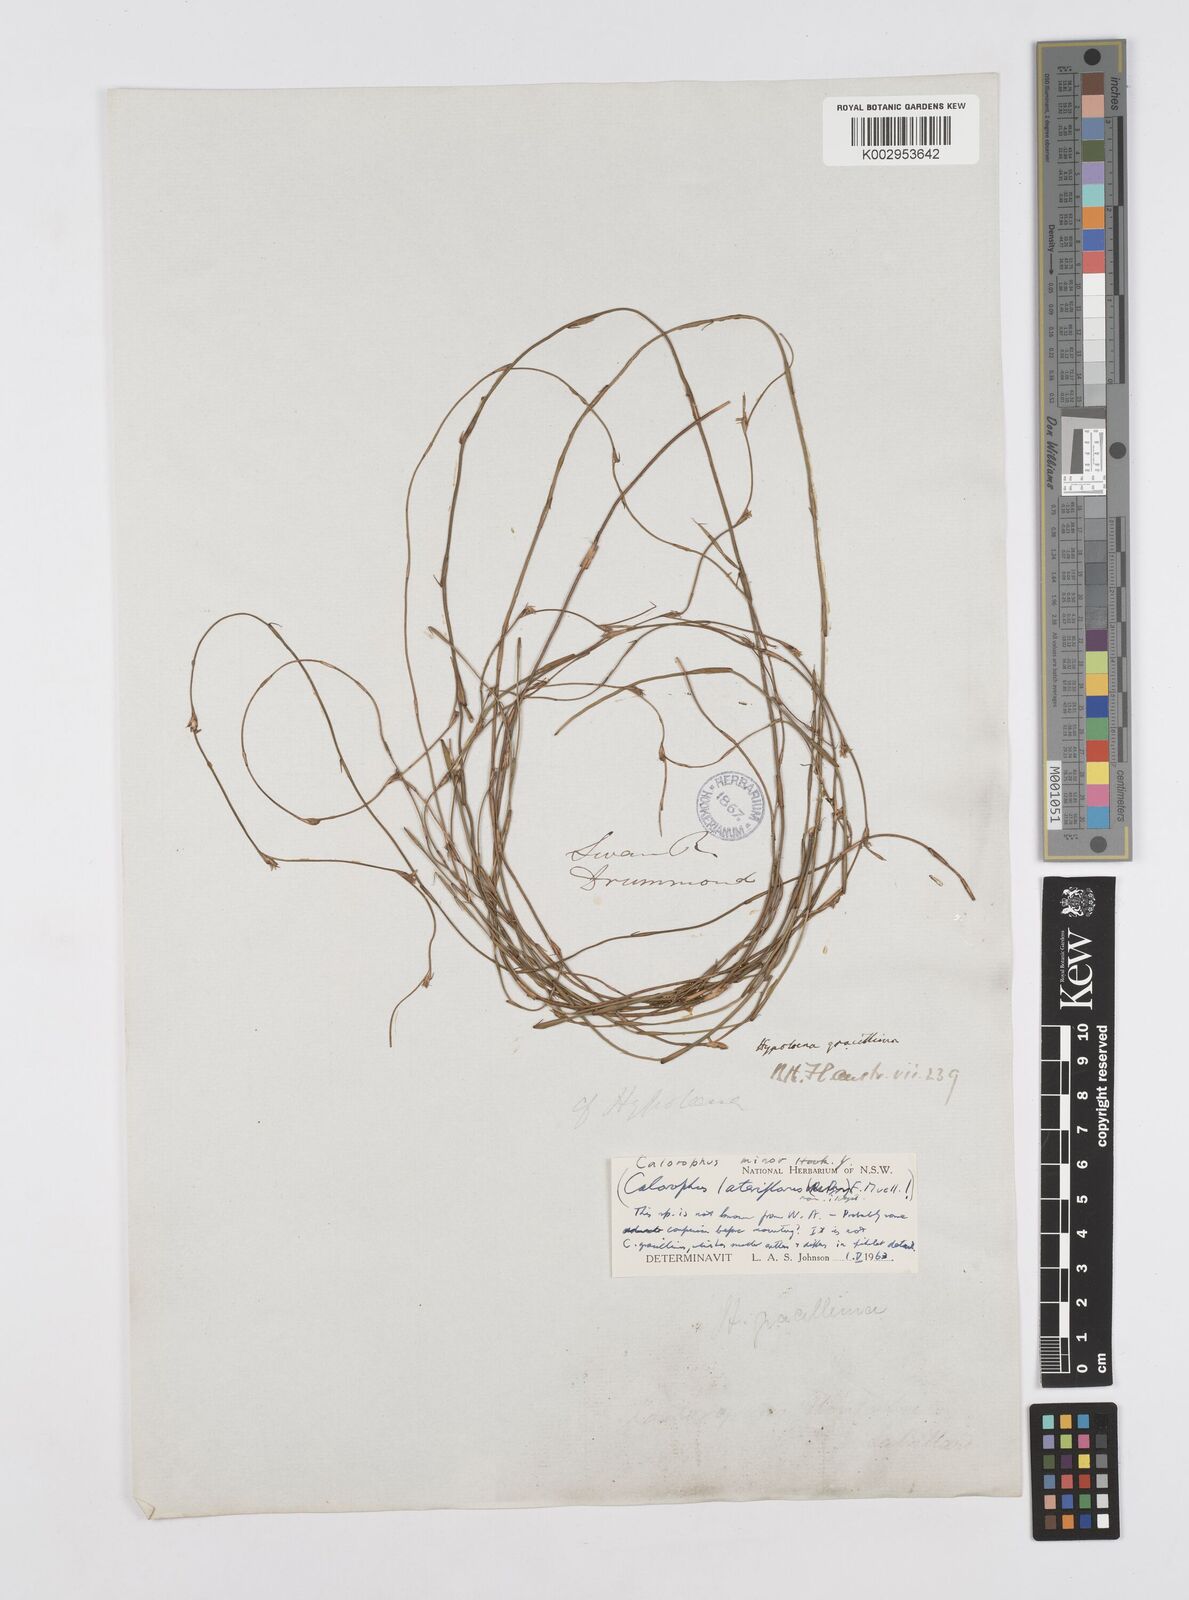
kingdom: Plantae
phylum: Tracheophyta
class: Liliopsida
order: Poales
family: Restionaceae
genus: Empodisma
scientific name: Empodisma minus
